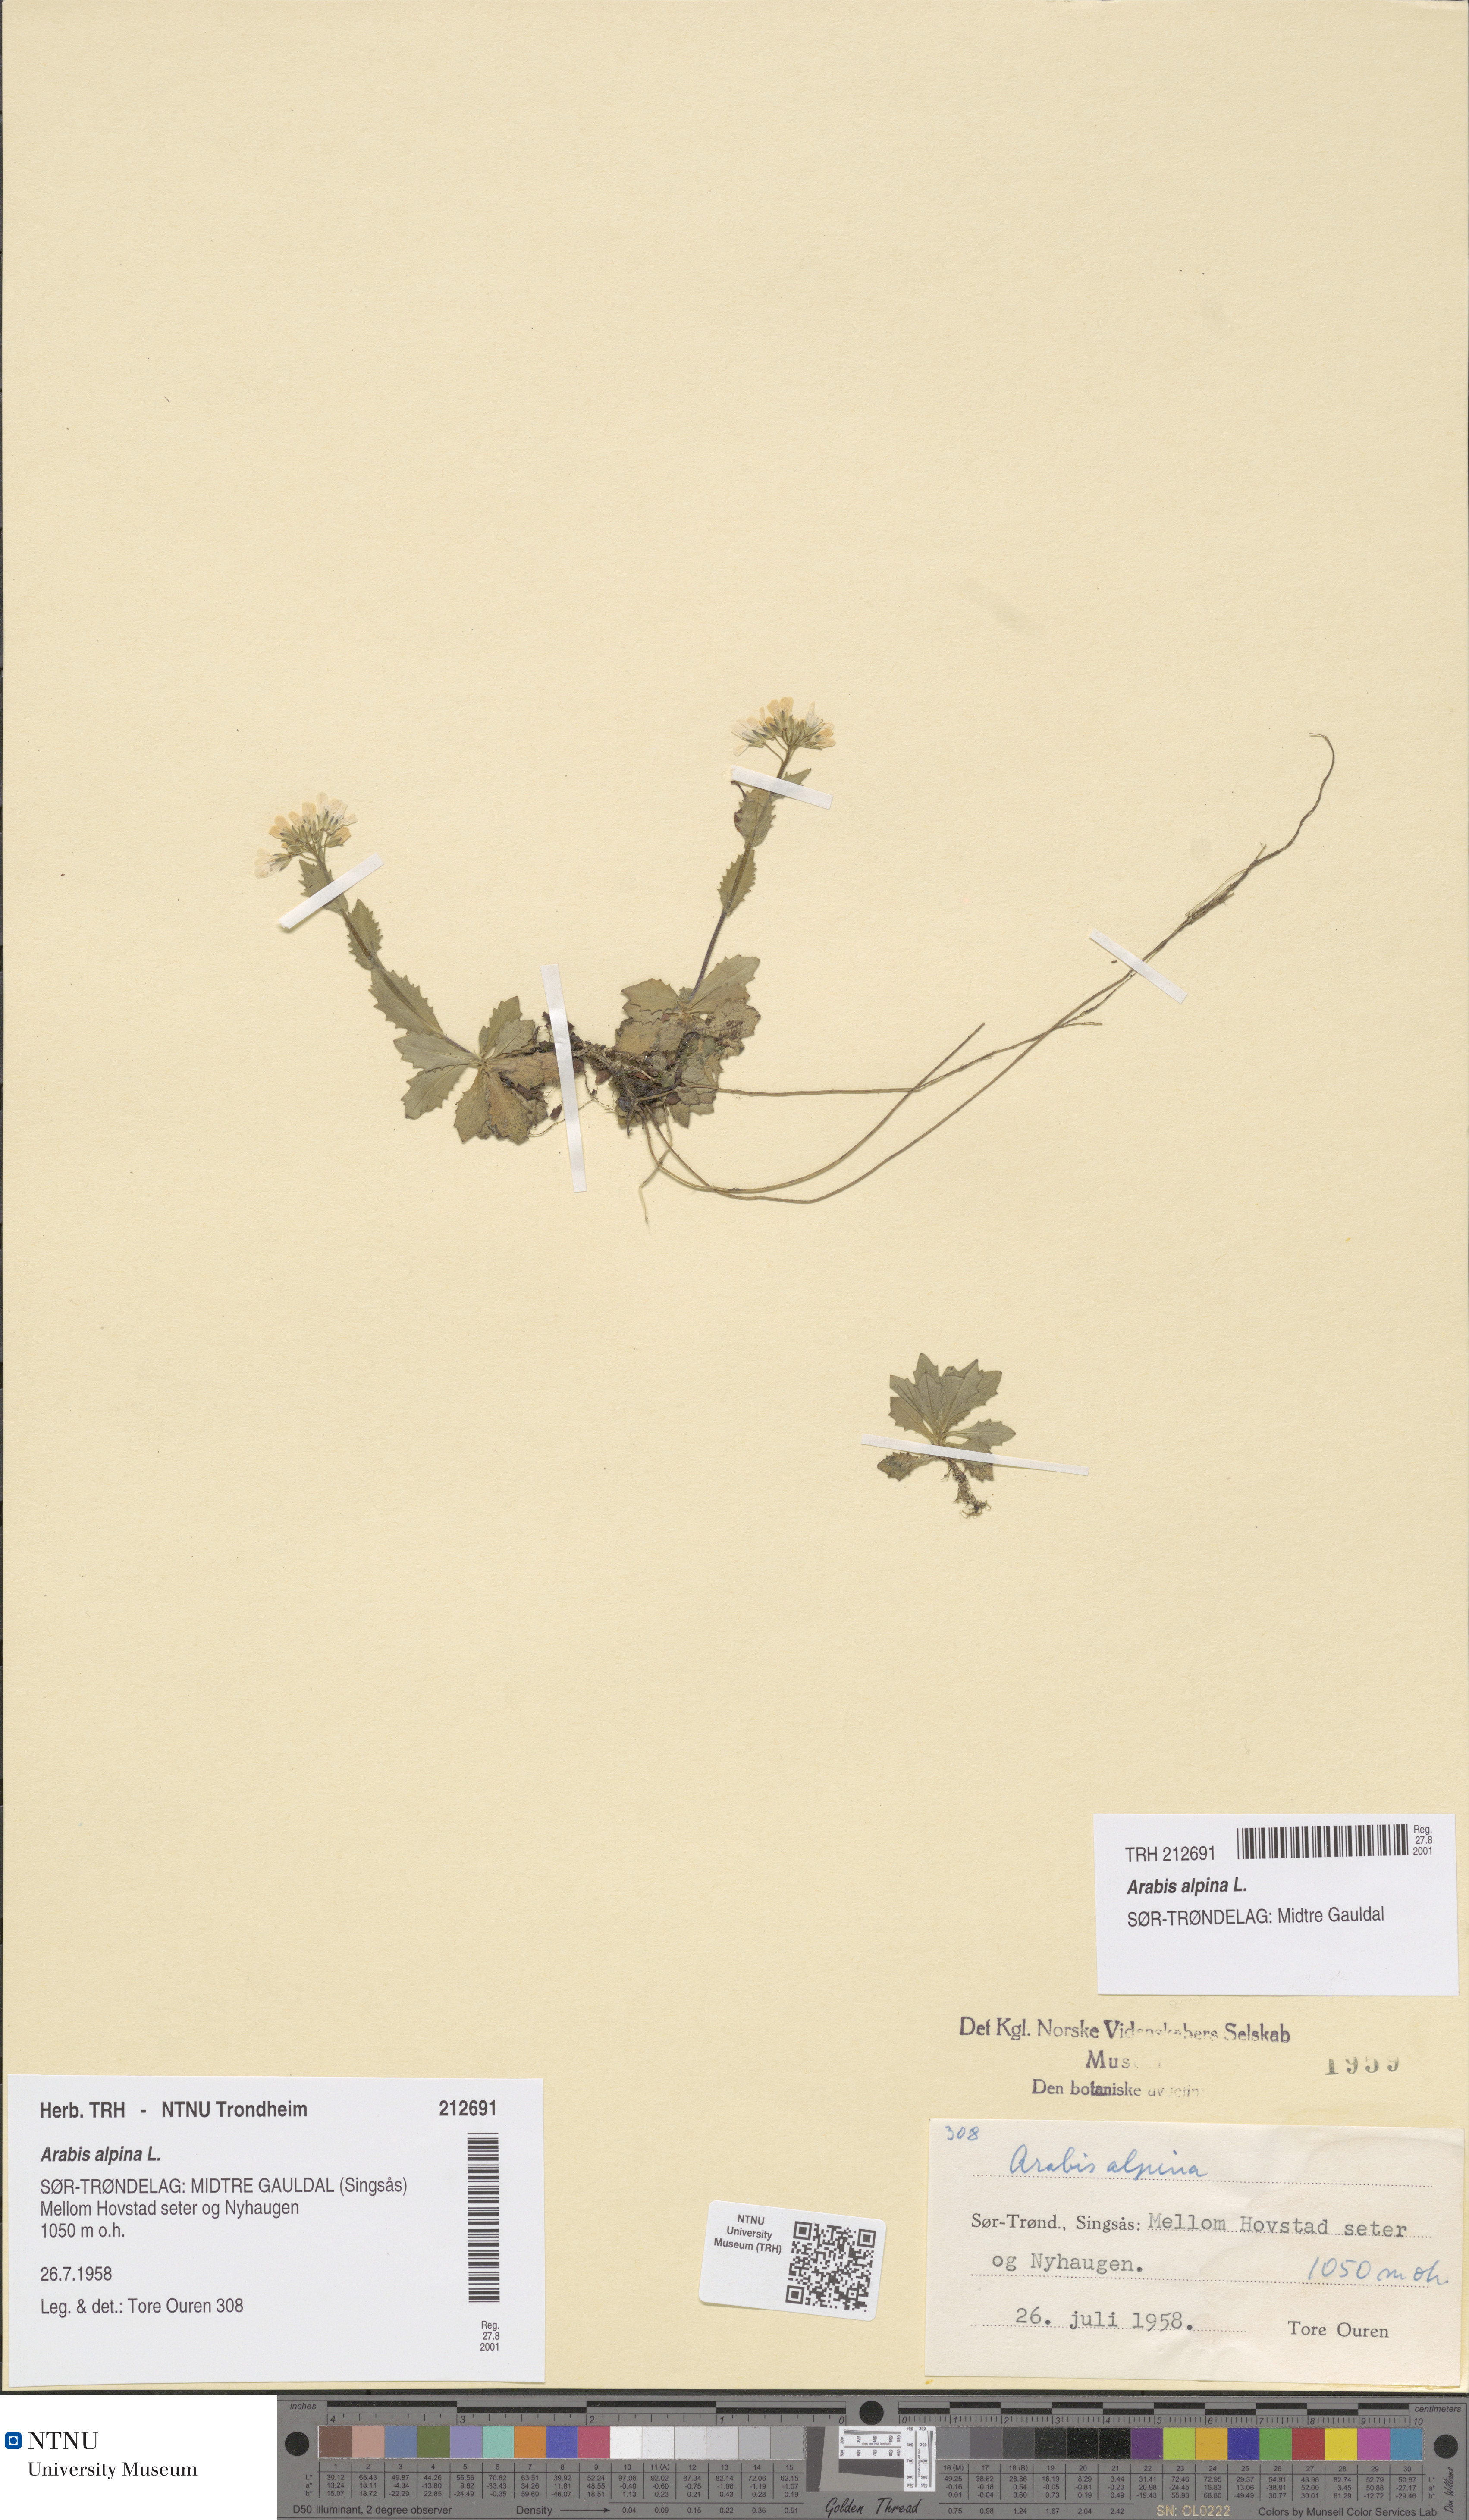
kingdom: Plantae
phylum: Tracheophyta
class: Magnoliopsida
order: Brassicales
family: Brassicaceae
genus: Arabis
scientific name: Arabis alpina
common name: Alpine rock-cress
